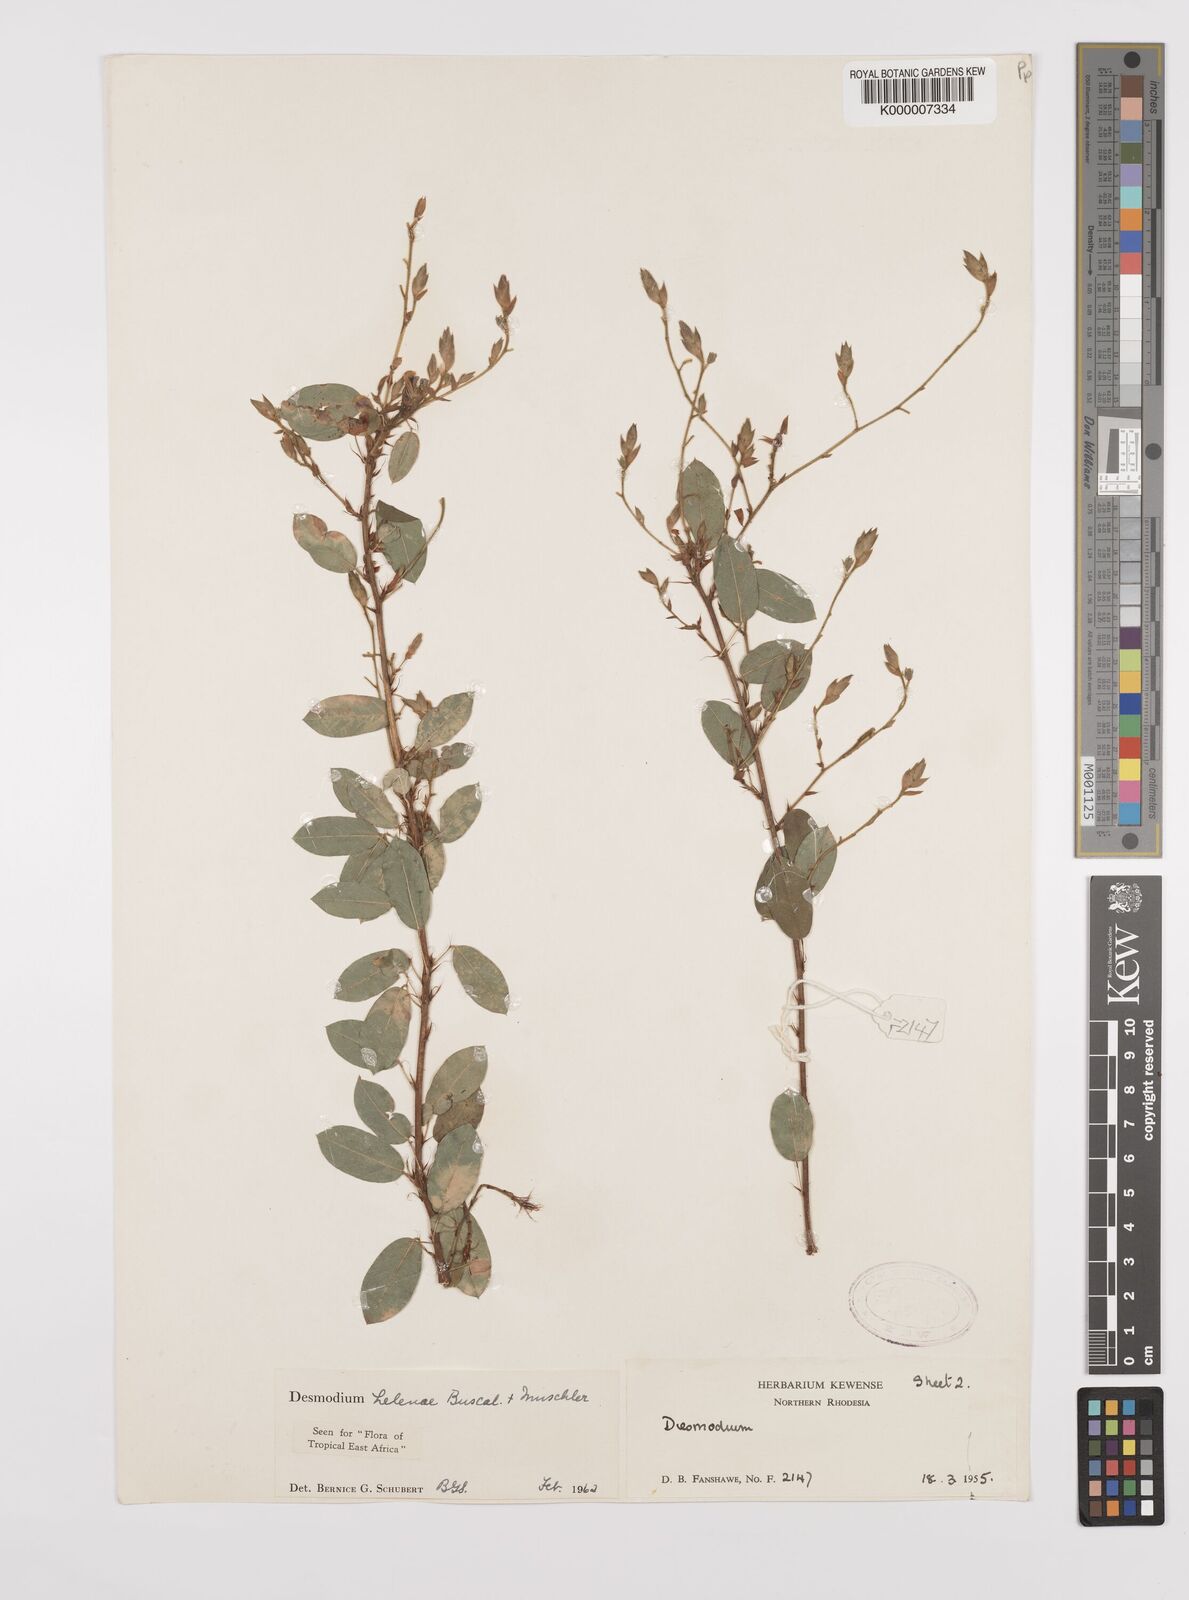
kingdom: Plantae
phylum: Tracheophyta
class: Magnoliopsida
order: Fabales
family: Fabaceae
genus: Grona
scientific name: Grona helenae
